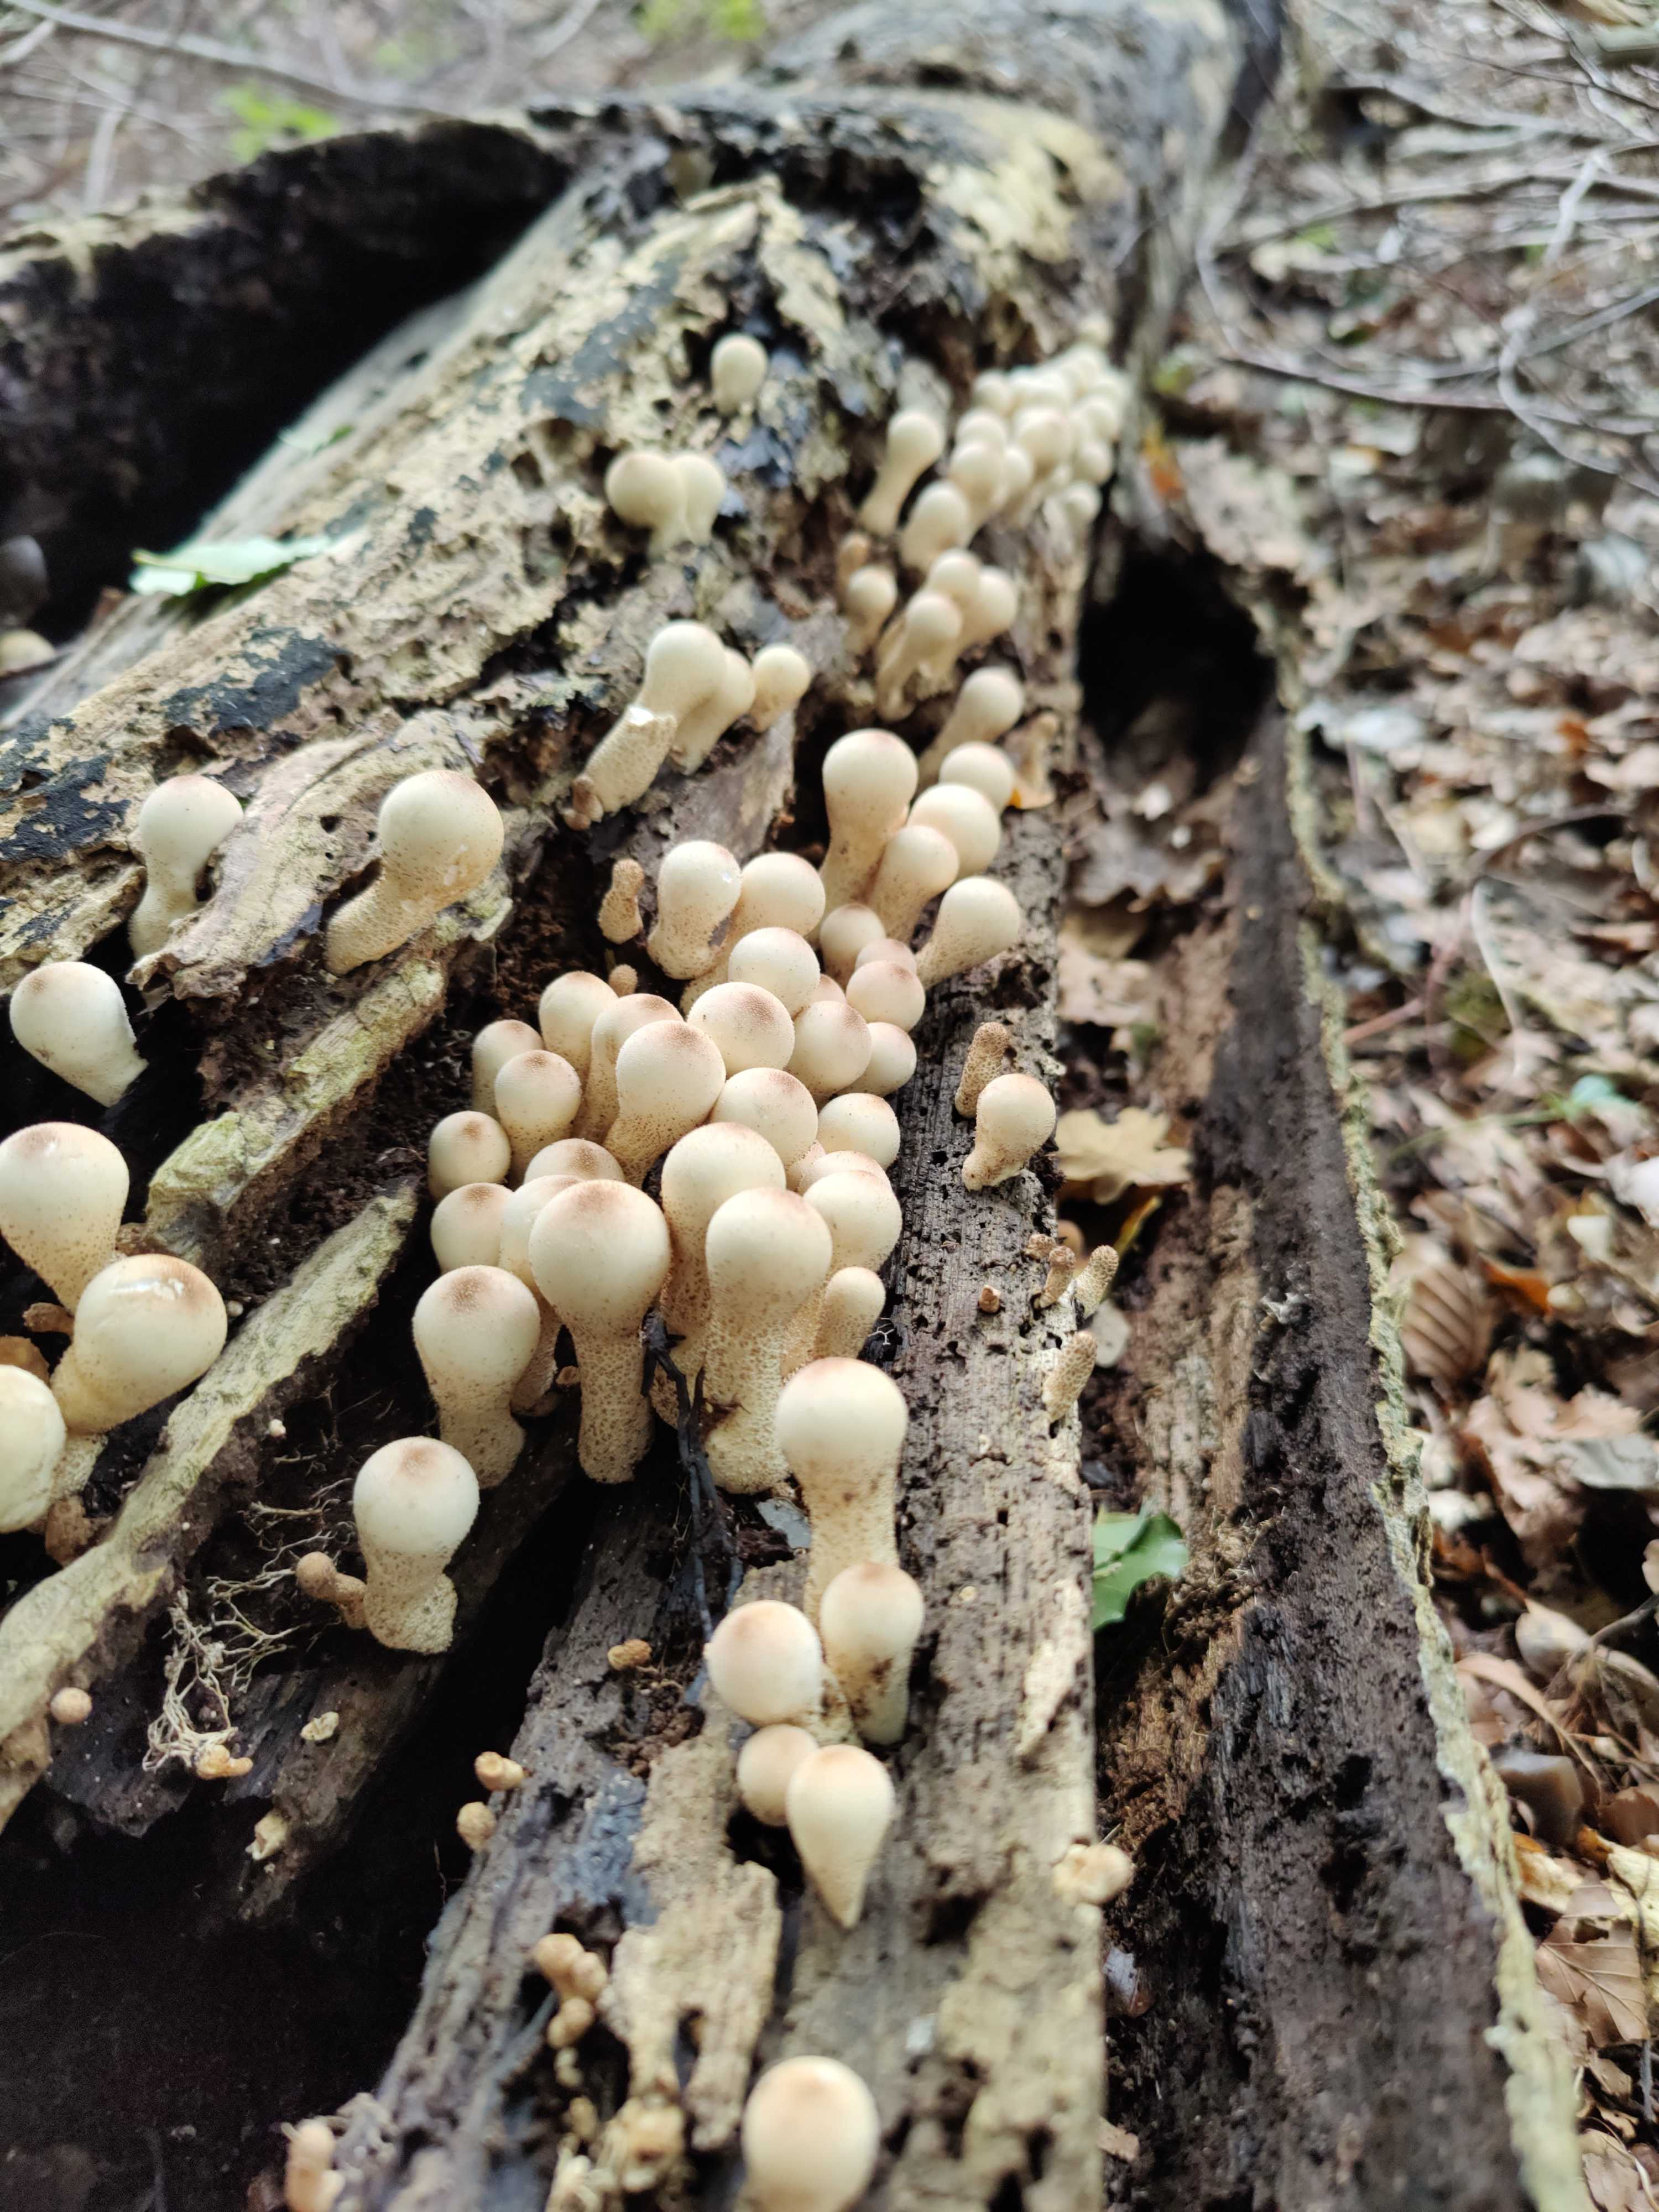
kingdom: Fungi
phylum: Basidiomycota
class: Agaricomycetes
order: Agaricales
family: Lycoperdaceae
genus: Apioperdon
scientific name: Apioperdon pyriforme
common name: pære-støvbold
